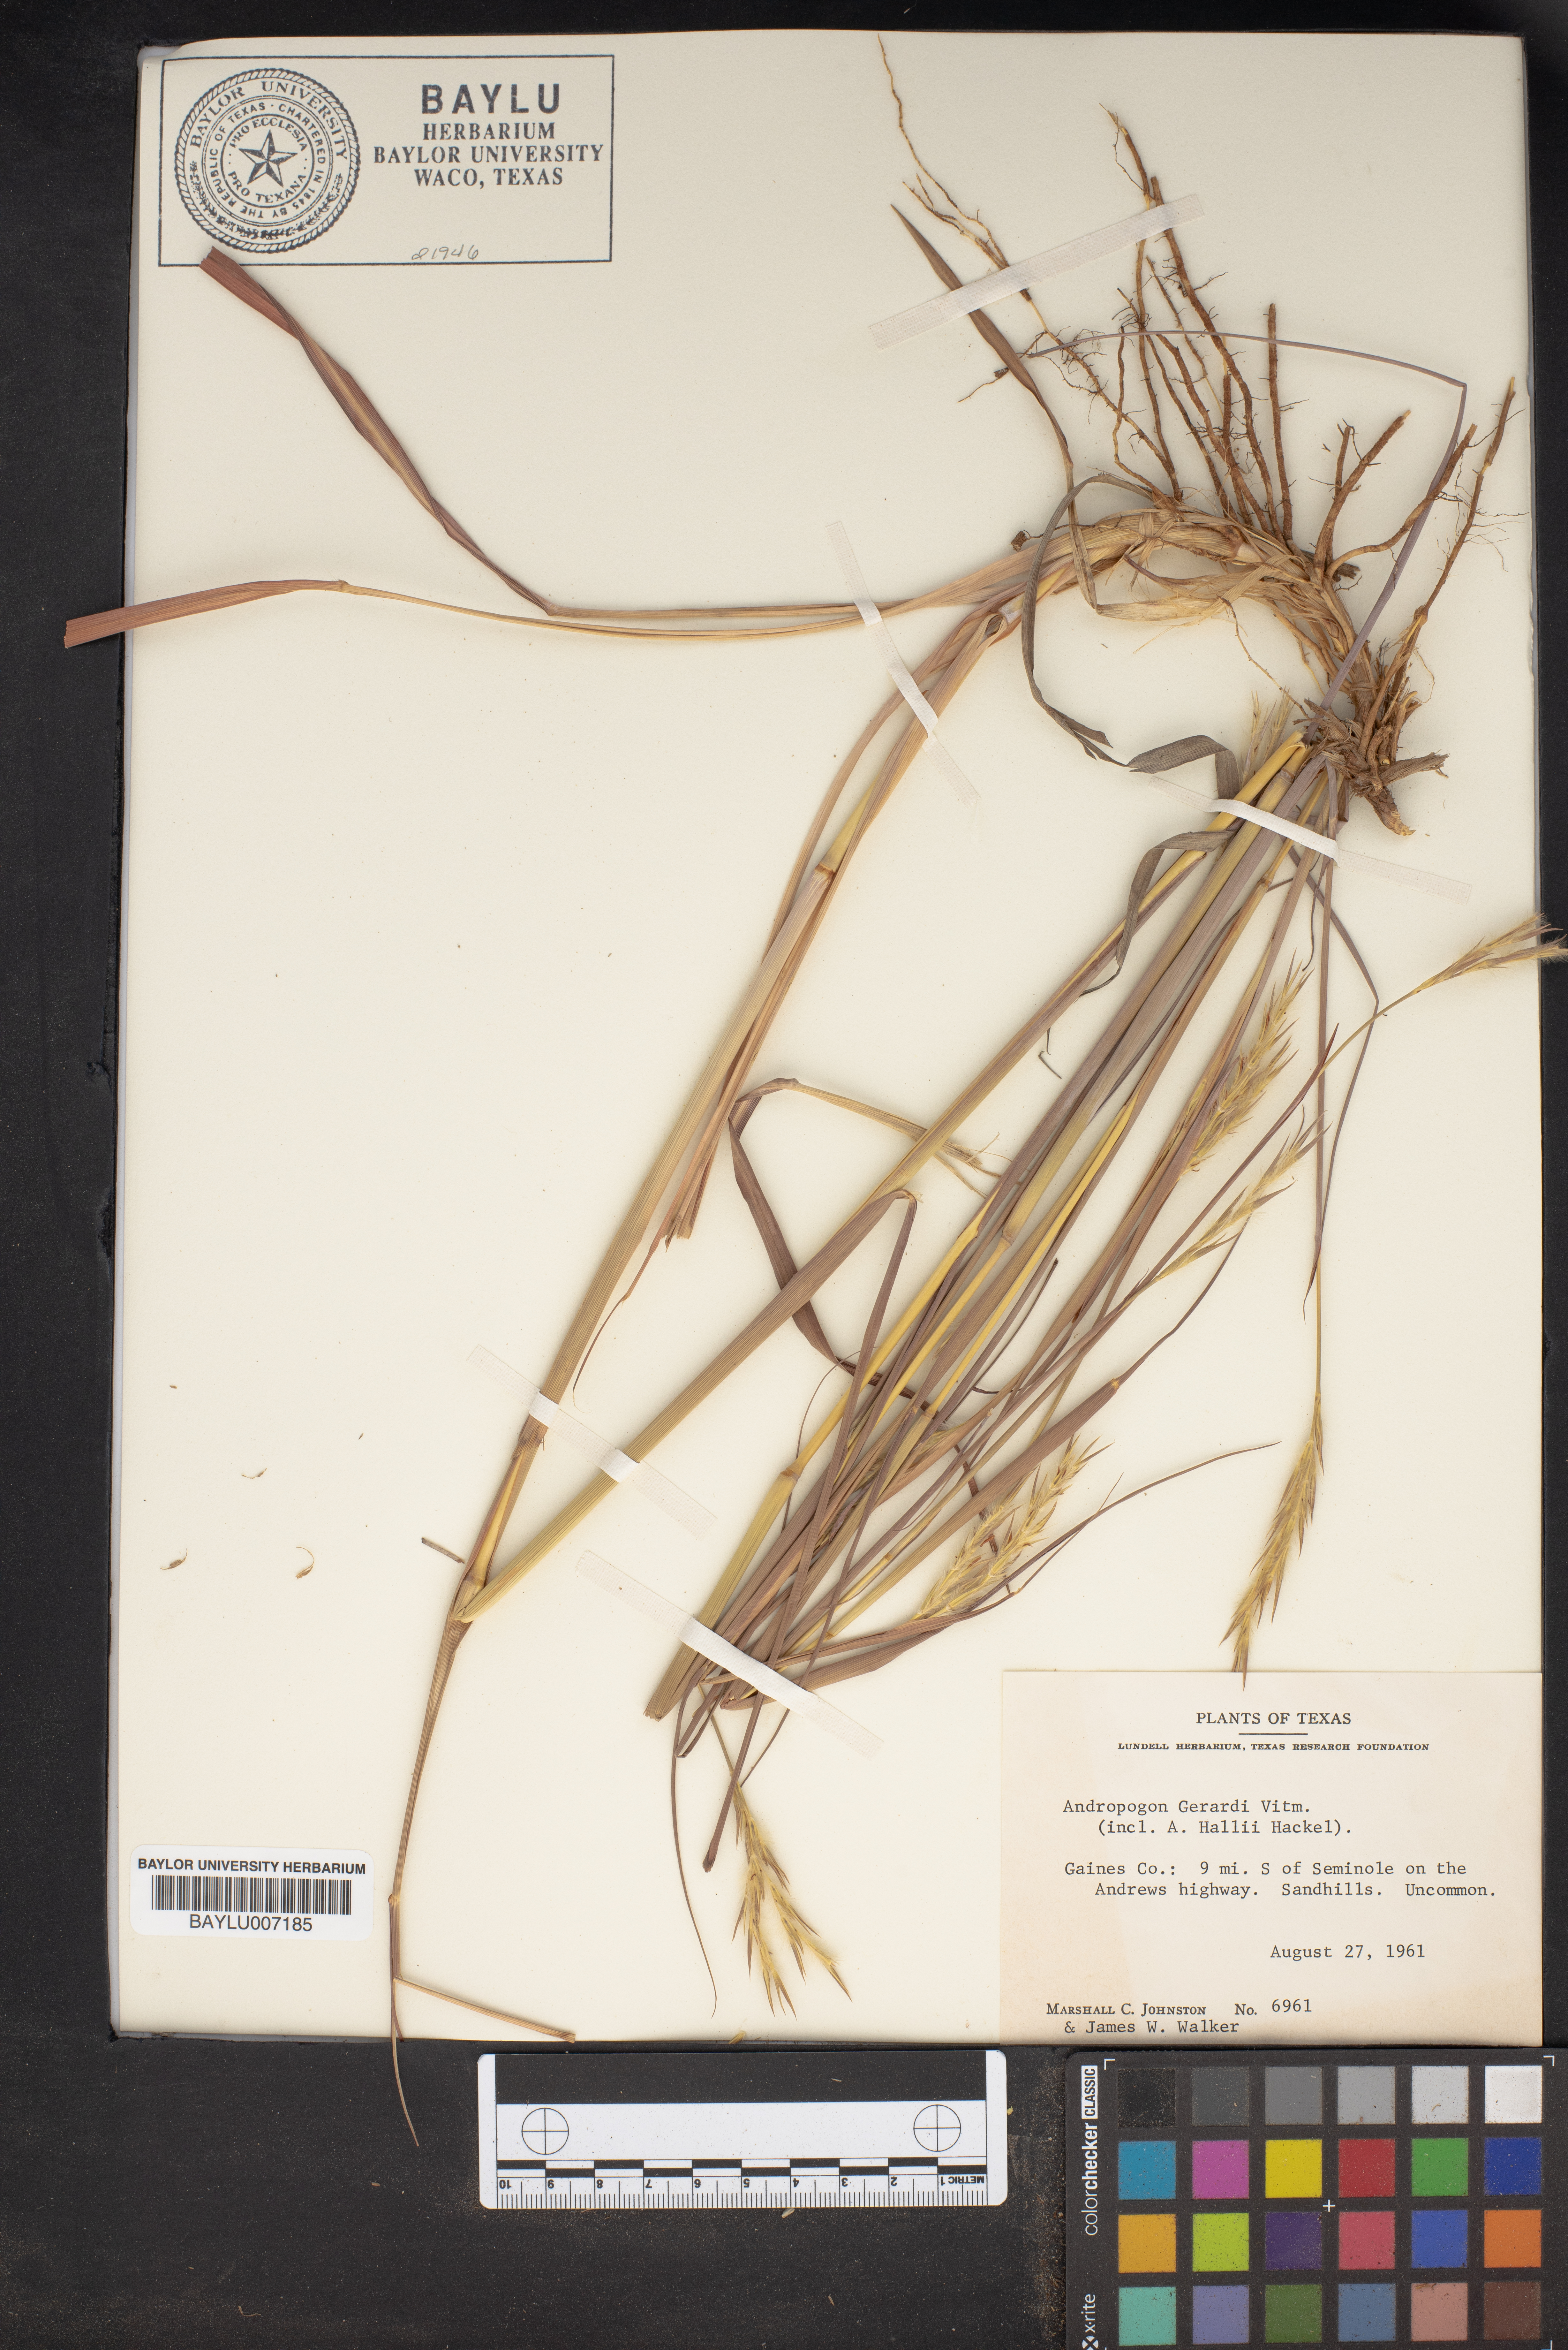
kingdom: Plantae
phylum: Tracheophyta
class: Liliopsida
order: Poales
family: Poaceae
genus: Andropogon
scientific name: Andropogon gerardi
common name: Big bluestem
